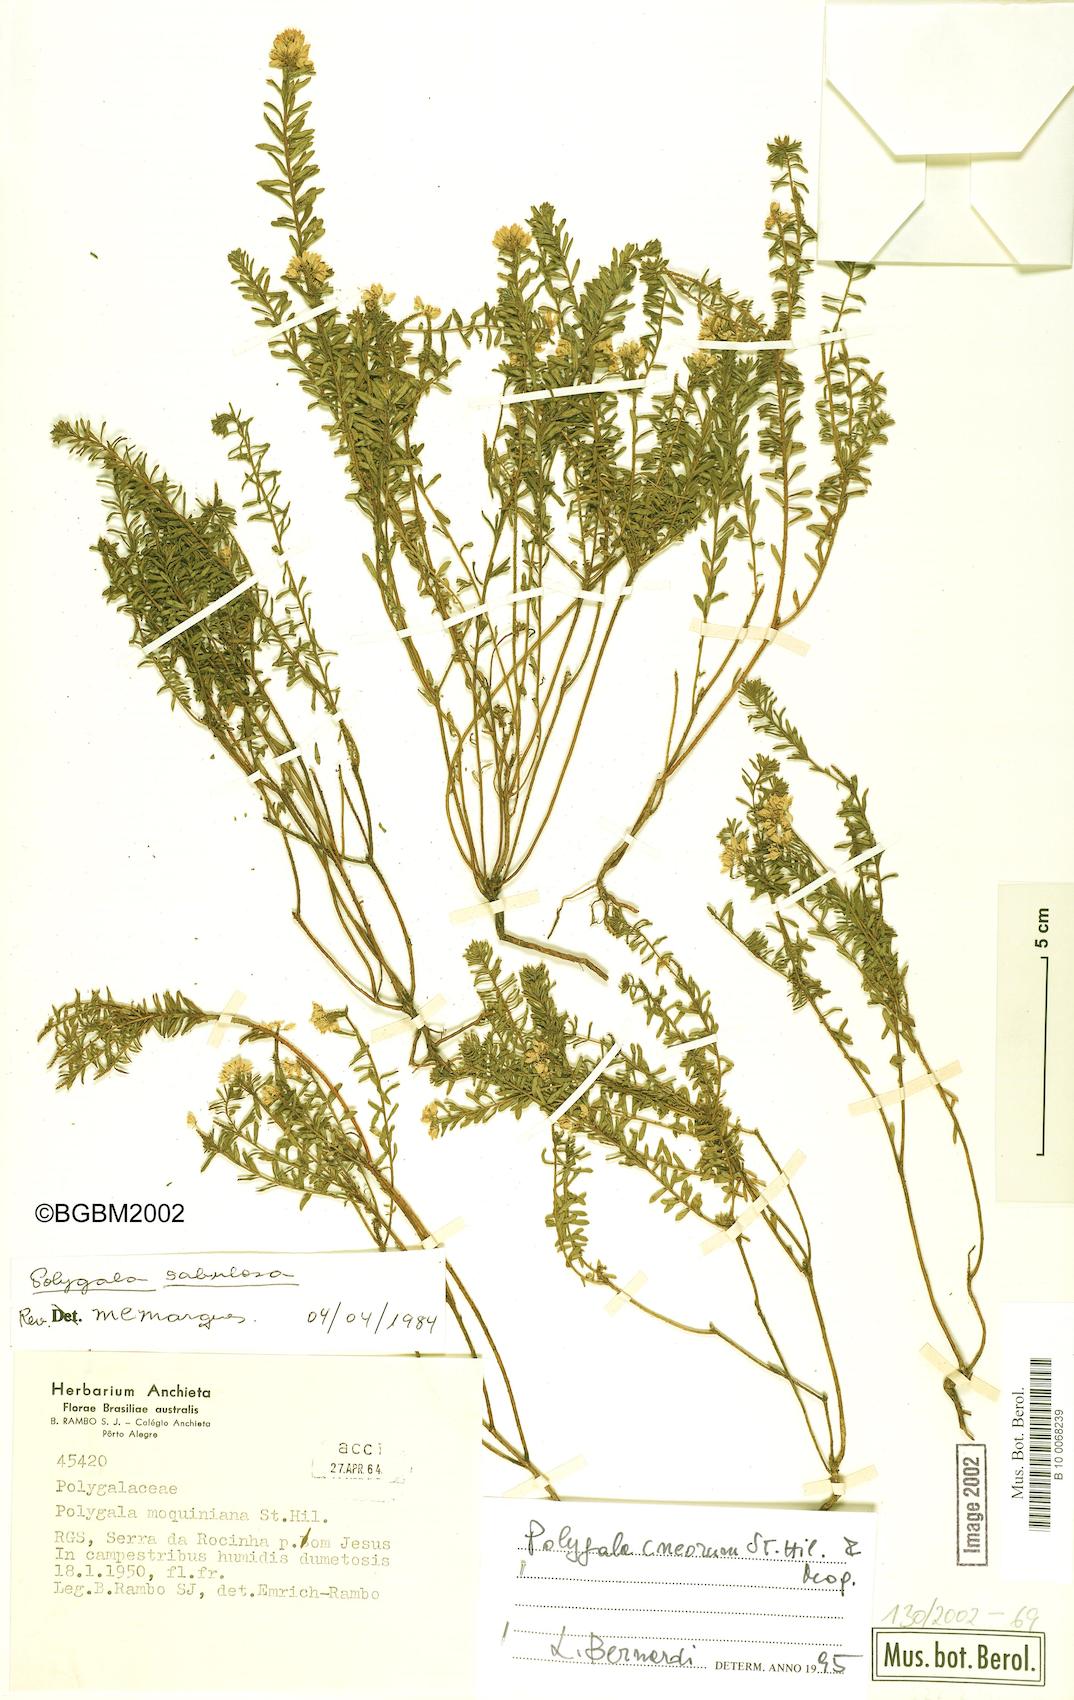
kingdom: Plantae
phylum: Tracheophyta
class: Magnoliopsida
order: Fabales
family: Polygalaceae
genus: Polygala
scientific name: Polygala cneorum
